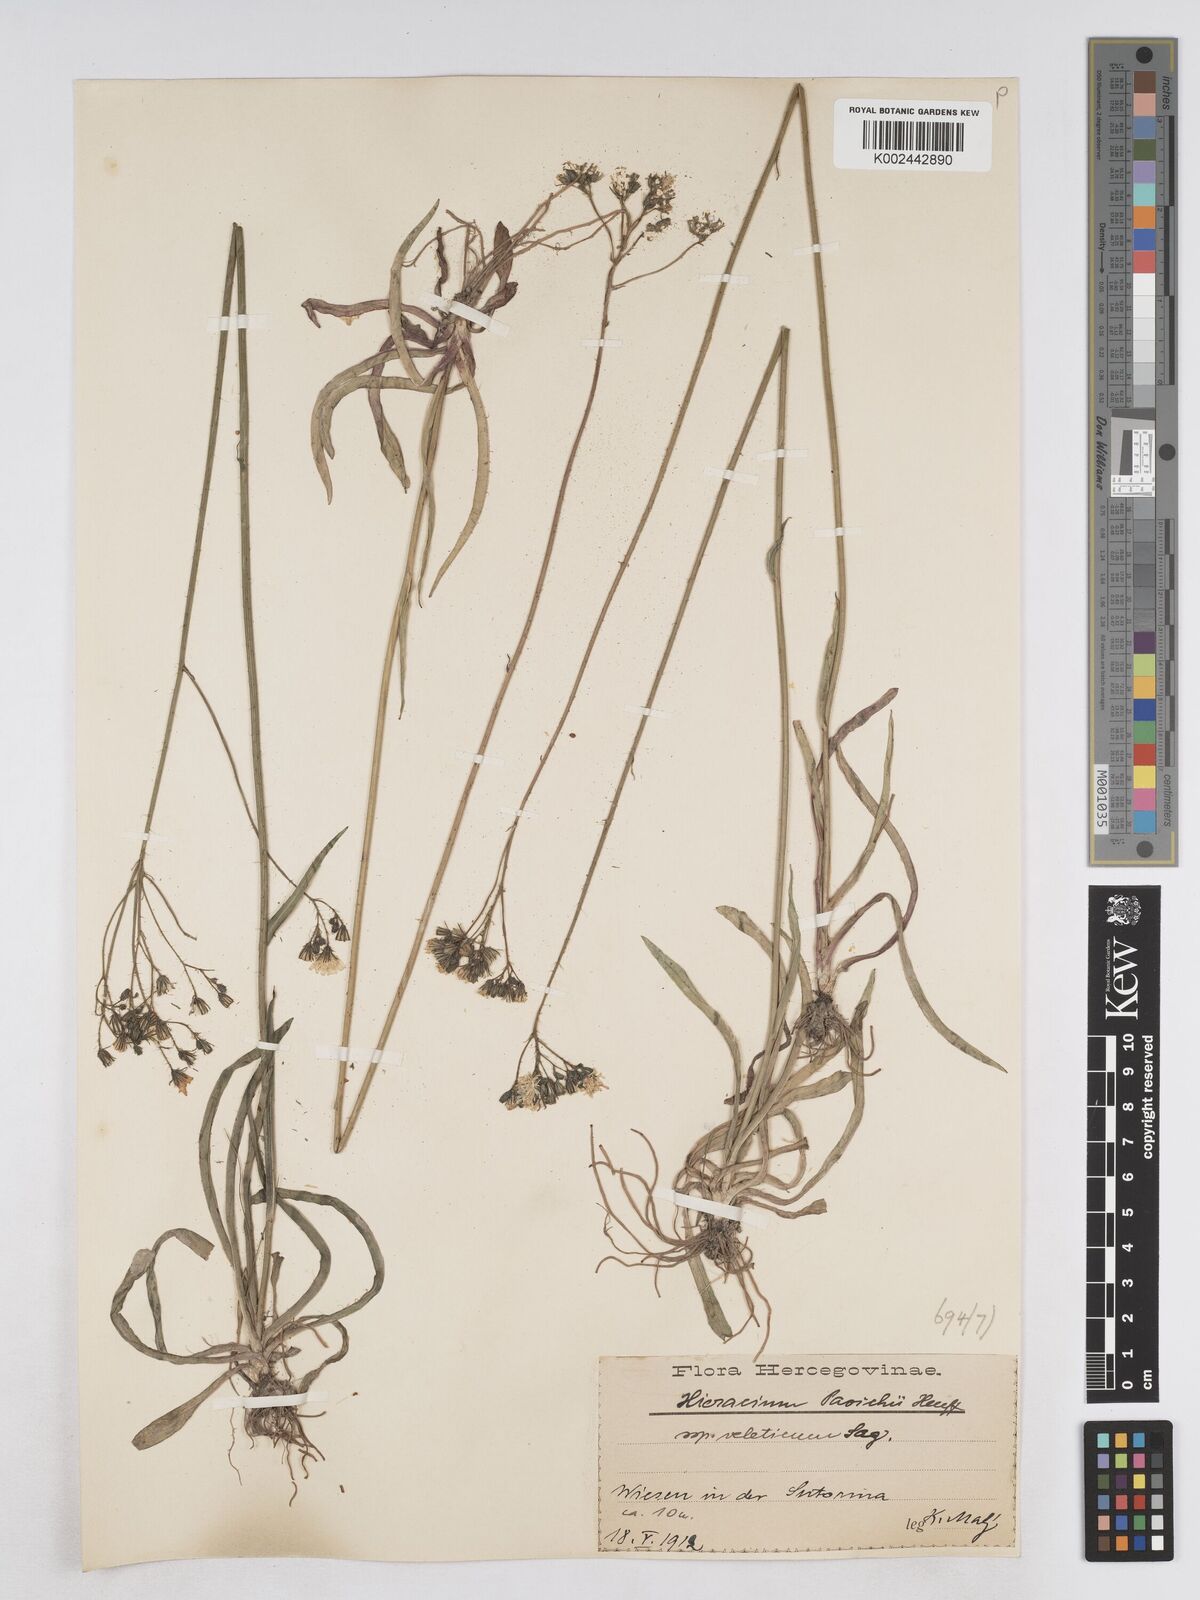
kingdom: Plantae
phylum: Tracheophyta
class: Magnoliopsida
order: Asterales
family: Asteraceae
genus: Pilosella
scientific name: Pilosella pavichii
